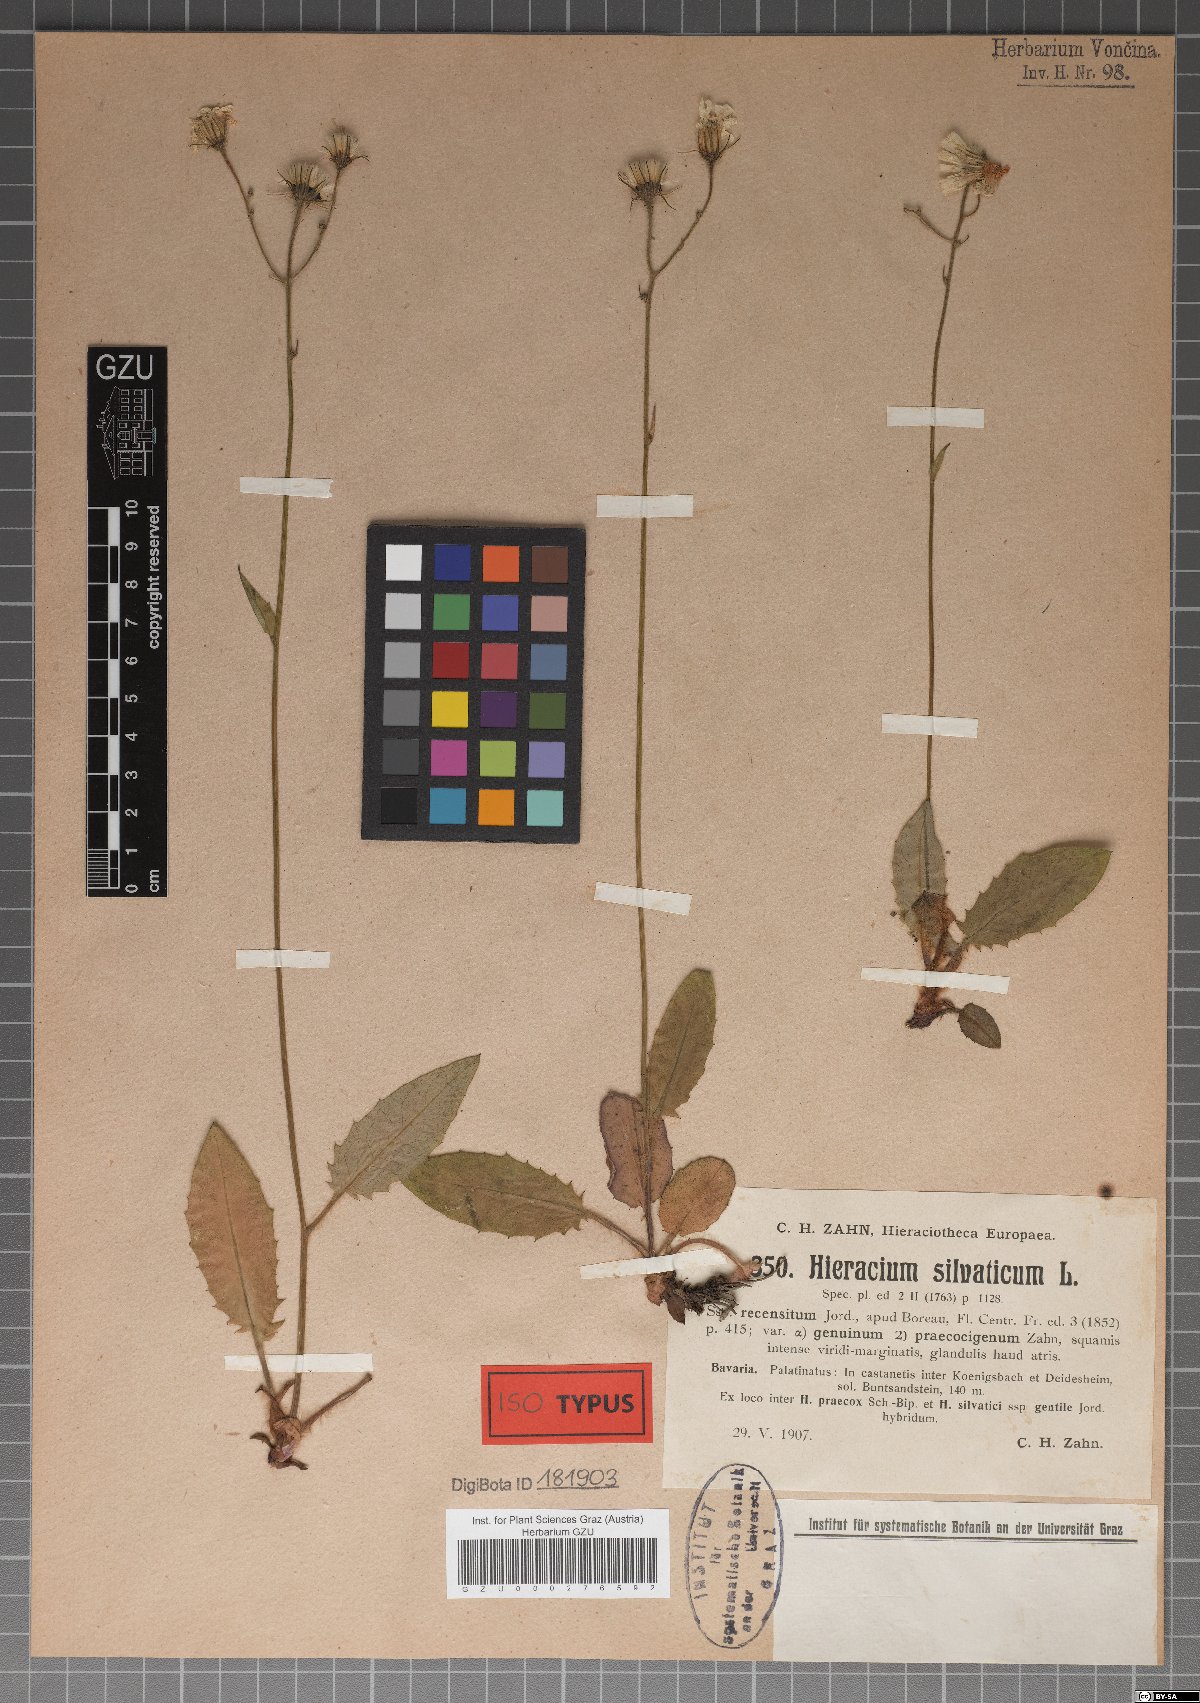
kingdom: Plantae
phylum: Tracheophyta
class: Magnoliopsida
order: Asterales
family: Asteraceae
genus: Hieracium
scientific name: Hieracium sylvaticum
